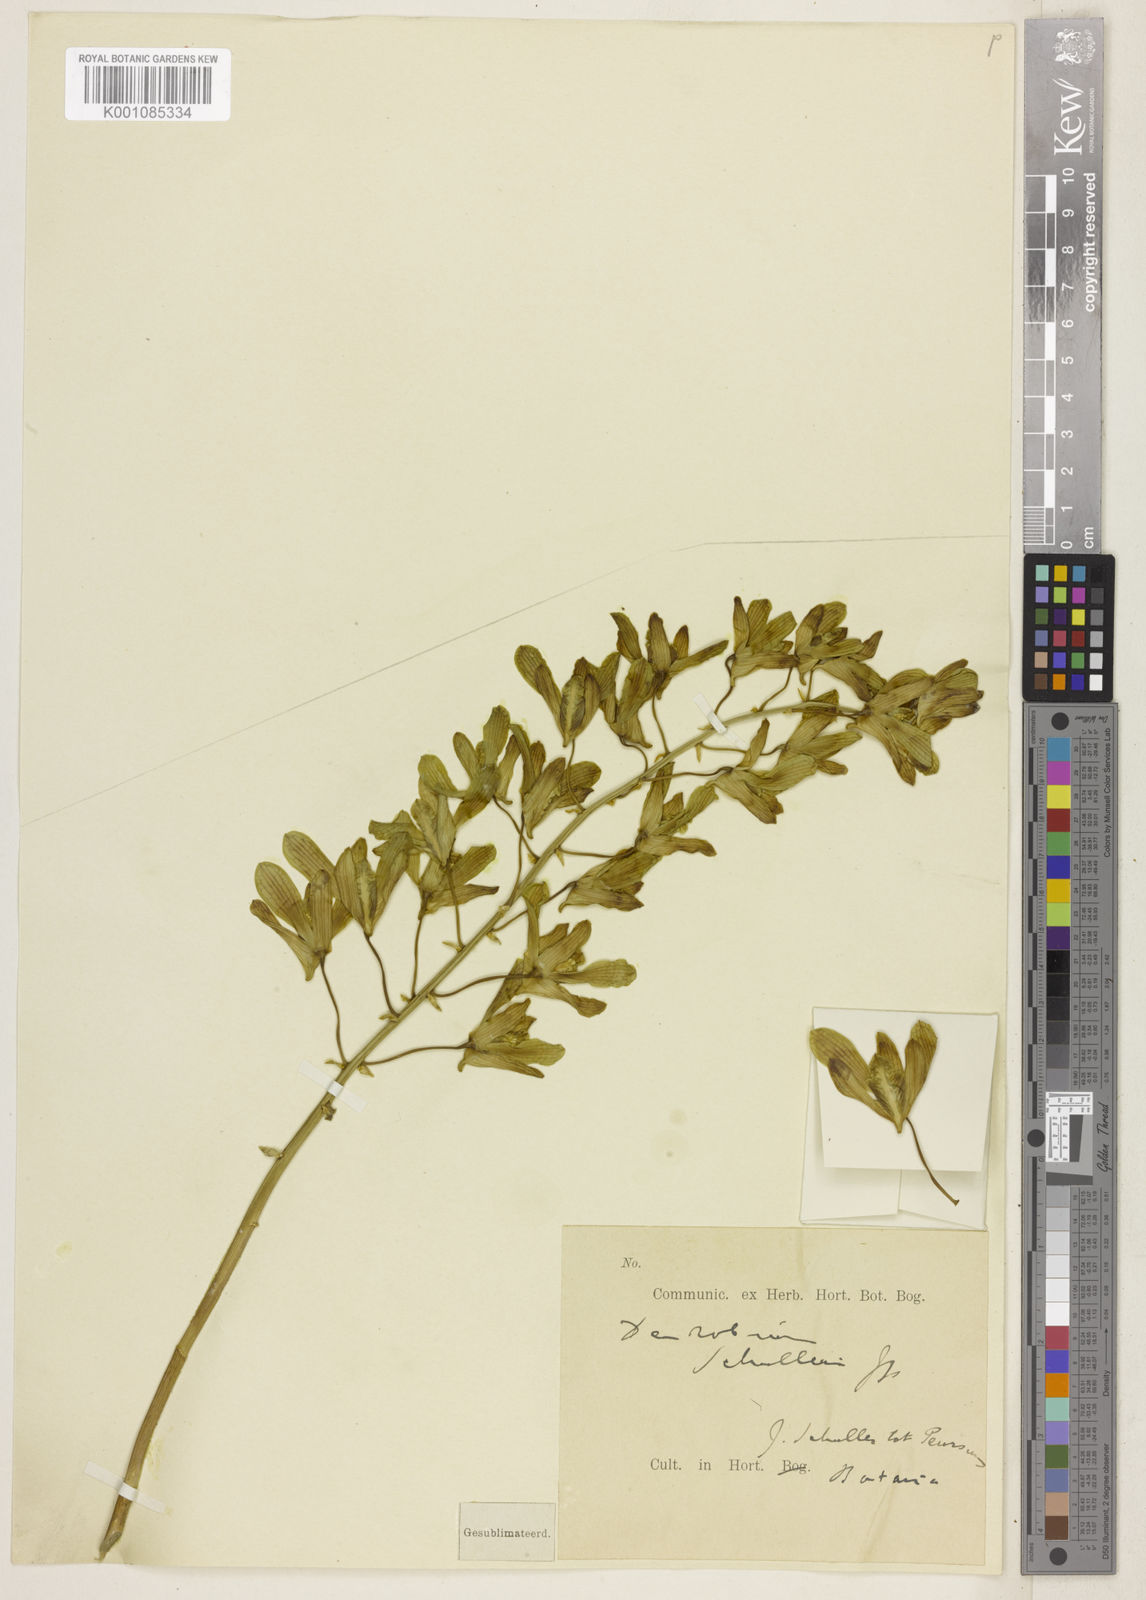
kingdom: Plantae
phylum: Tracheophyta
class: Liliopsida
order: Asparagales
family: Orchidaceae
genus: Dendrobium
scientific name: Dendrobium schulleri
